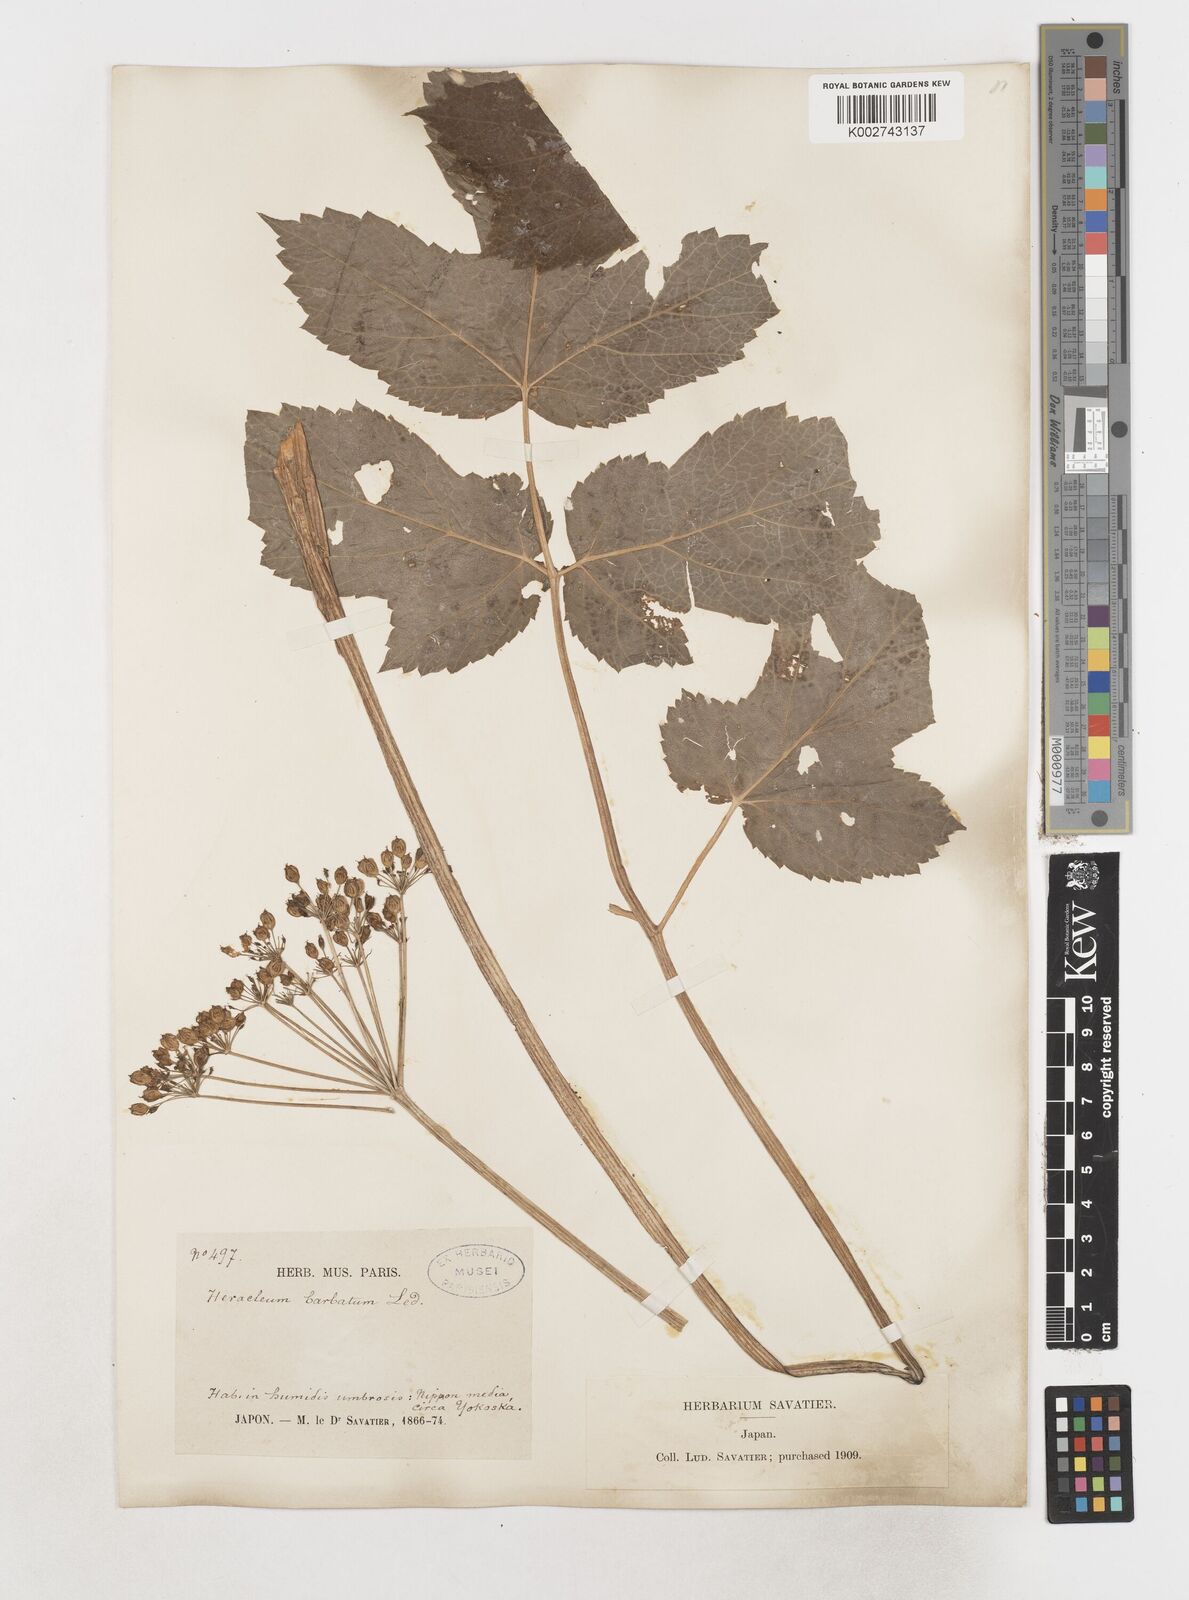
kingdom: Plantae
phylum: Tracheophyta
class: Magnoliopsida
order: Apiales
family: Apiaceae
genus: Heracleum
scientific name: Heracleum dissectum
